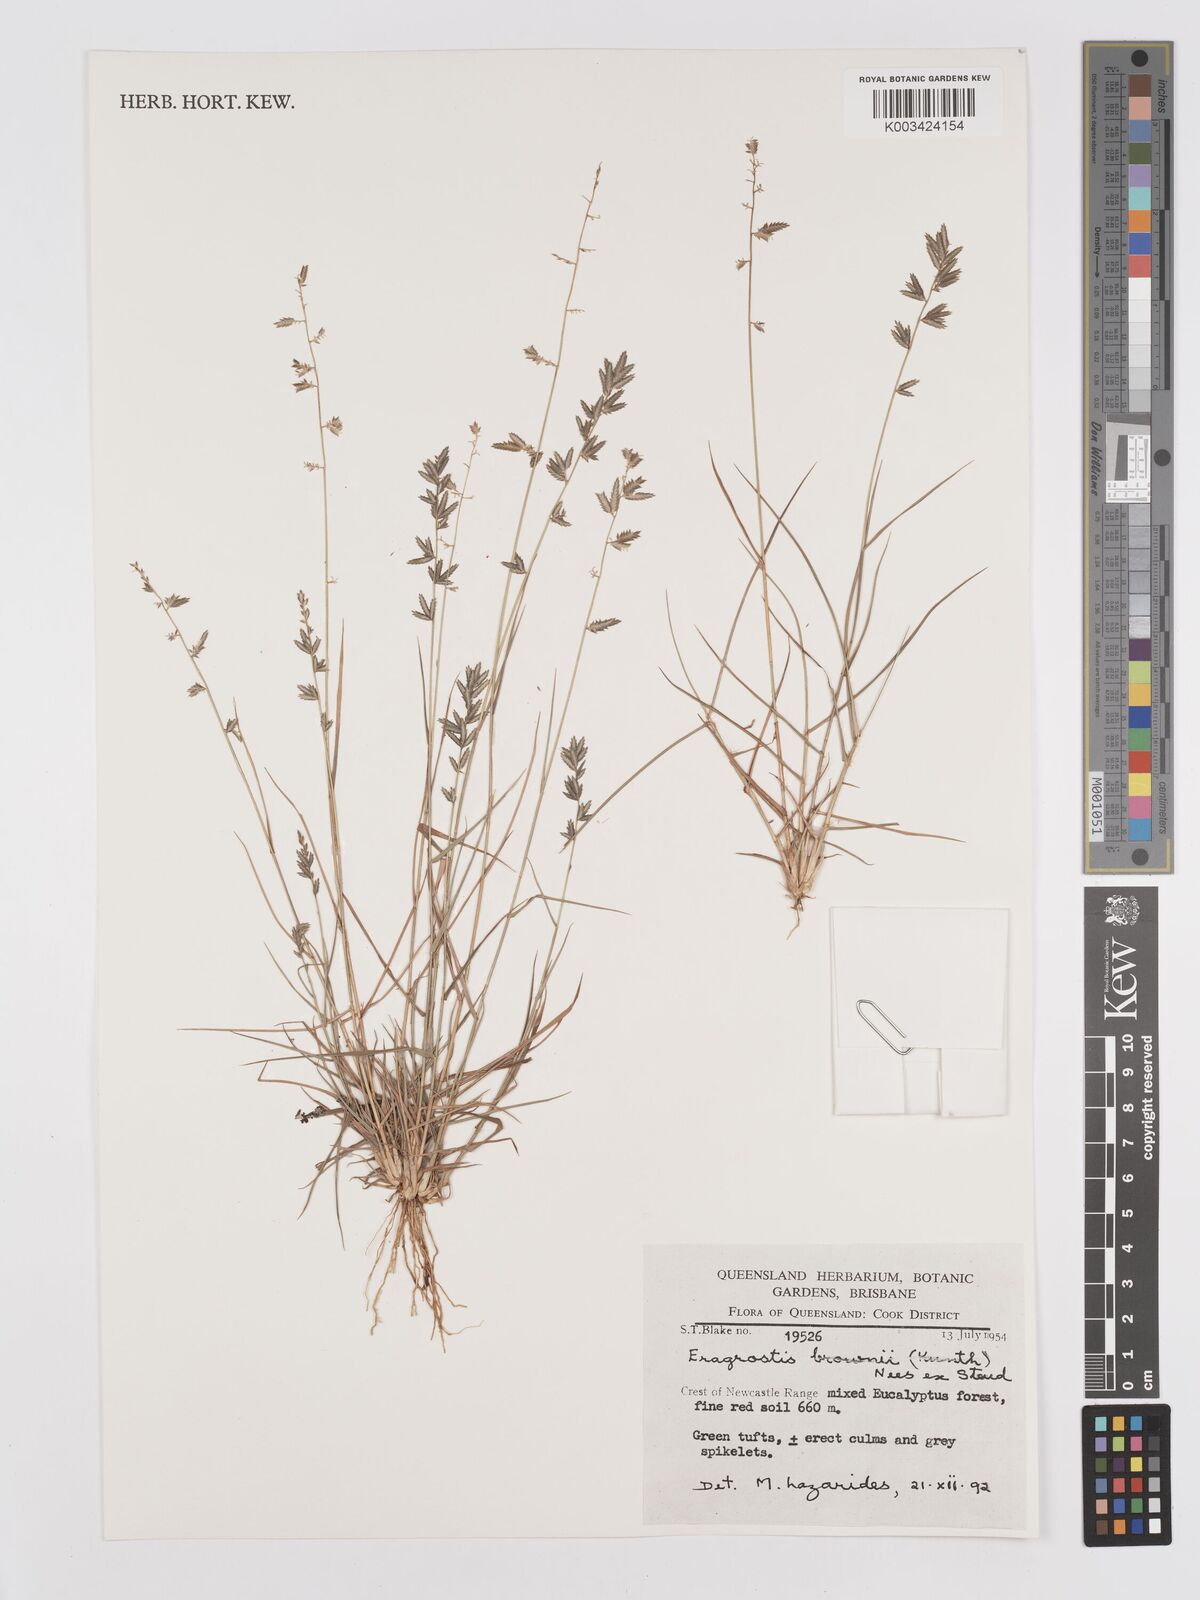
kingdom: Plantae
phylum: Tracheophyta
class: Liliopsida
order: Poales
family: Poaceae
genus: Eragrostis
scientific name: Eragrostis brownii
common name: Lovegrass
